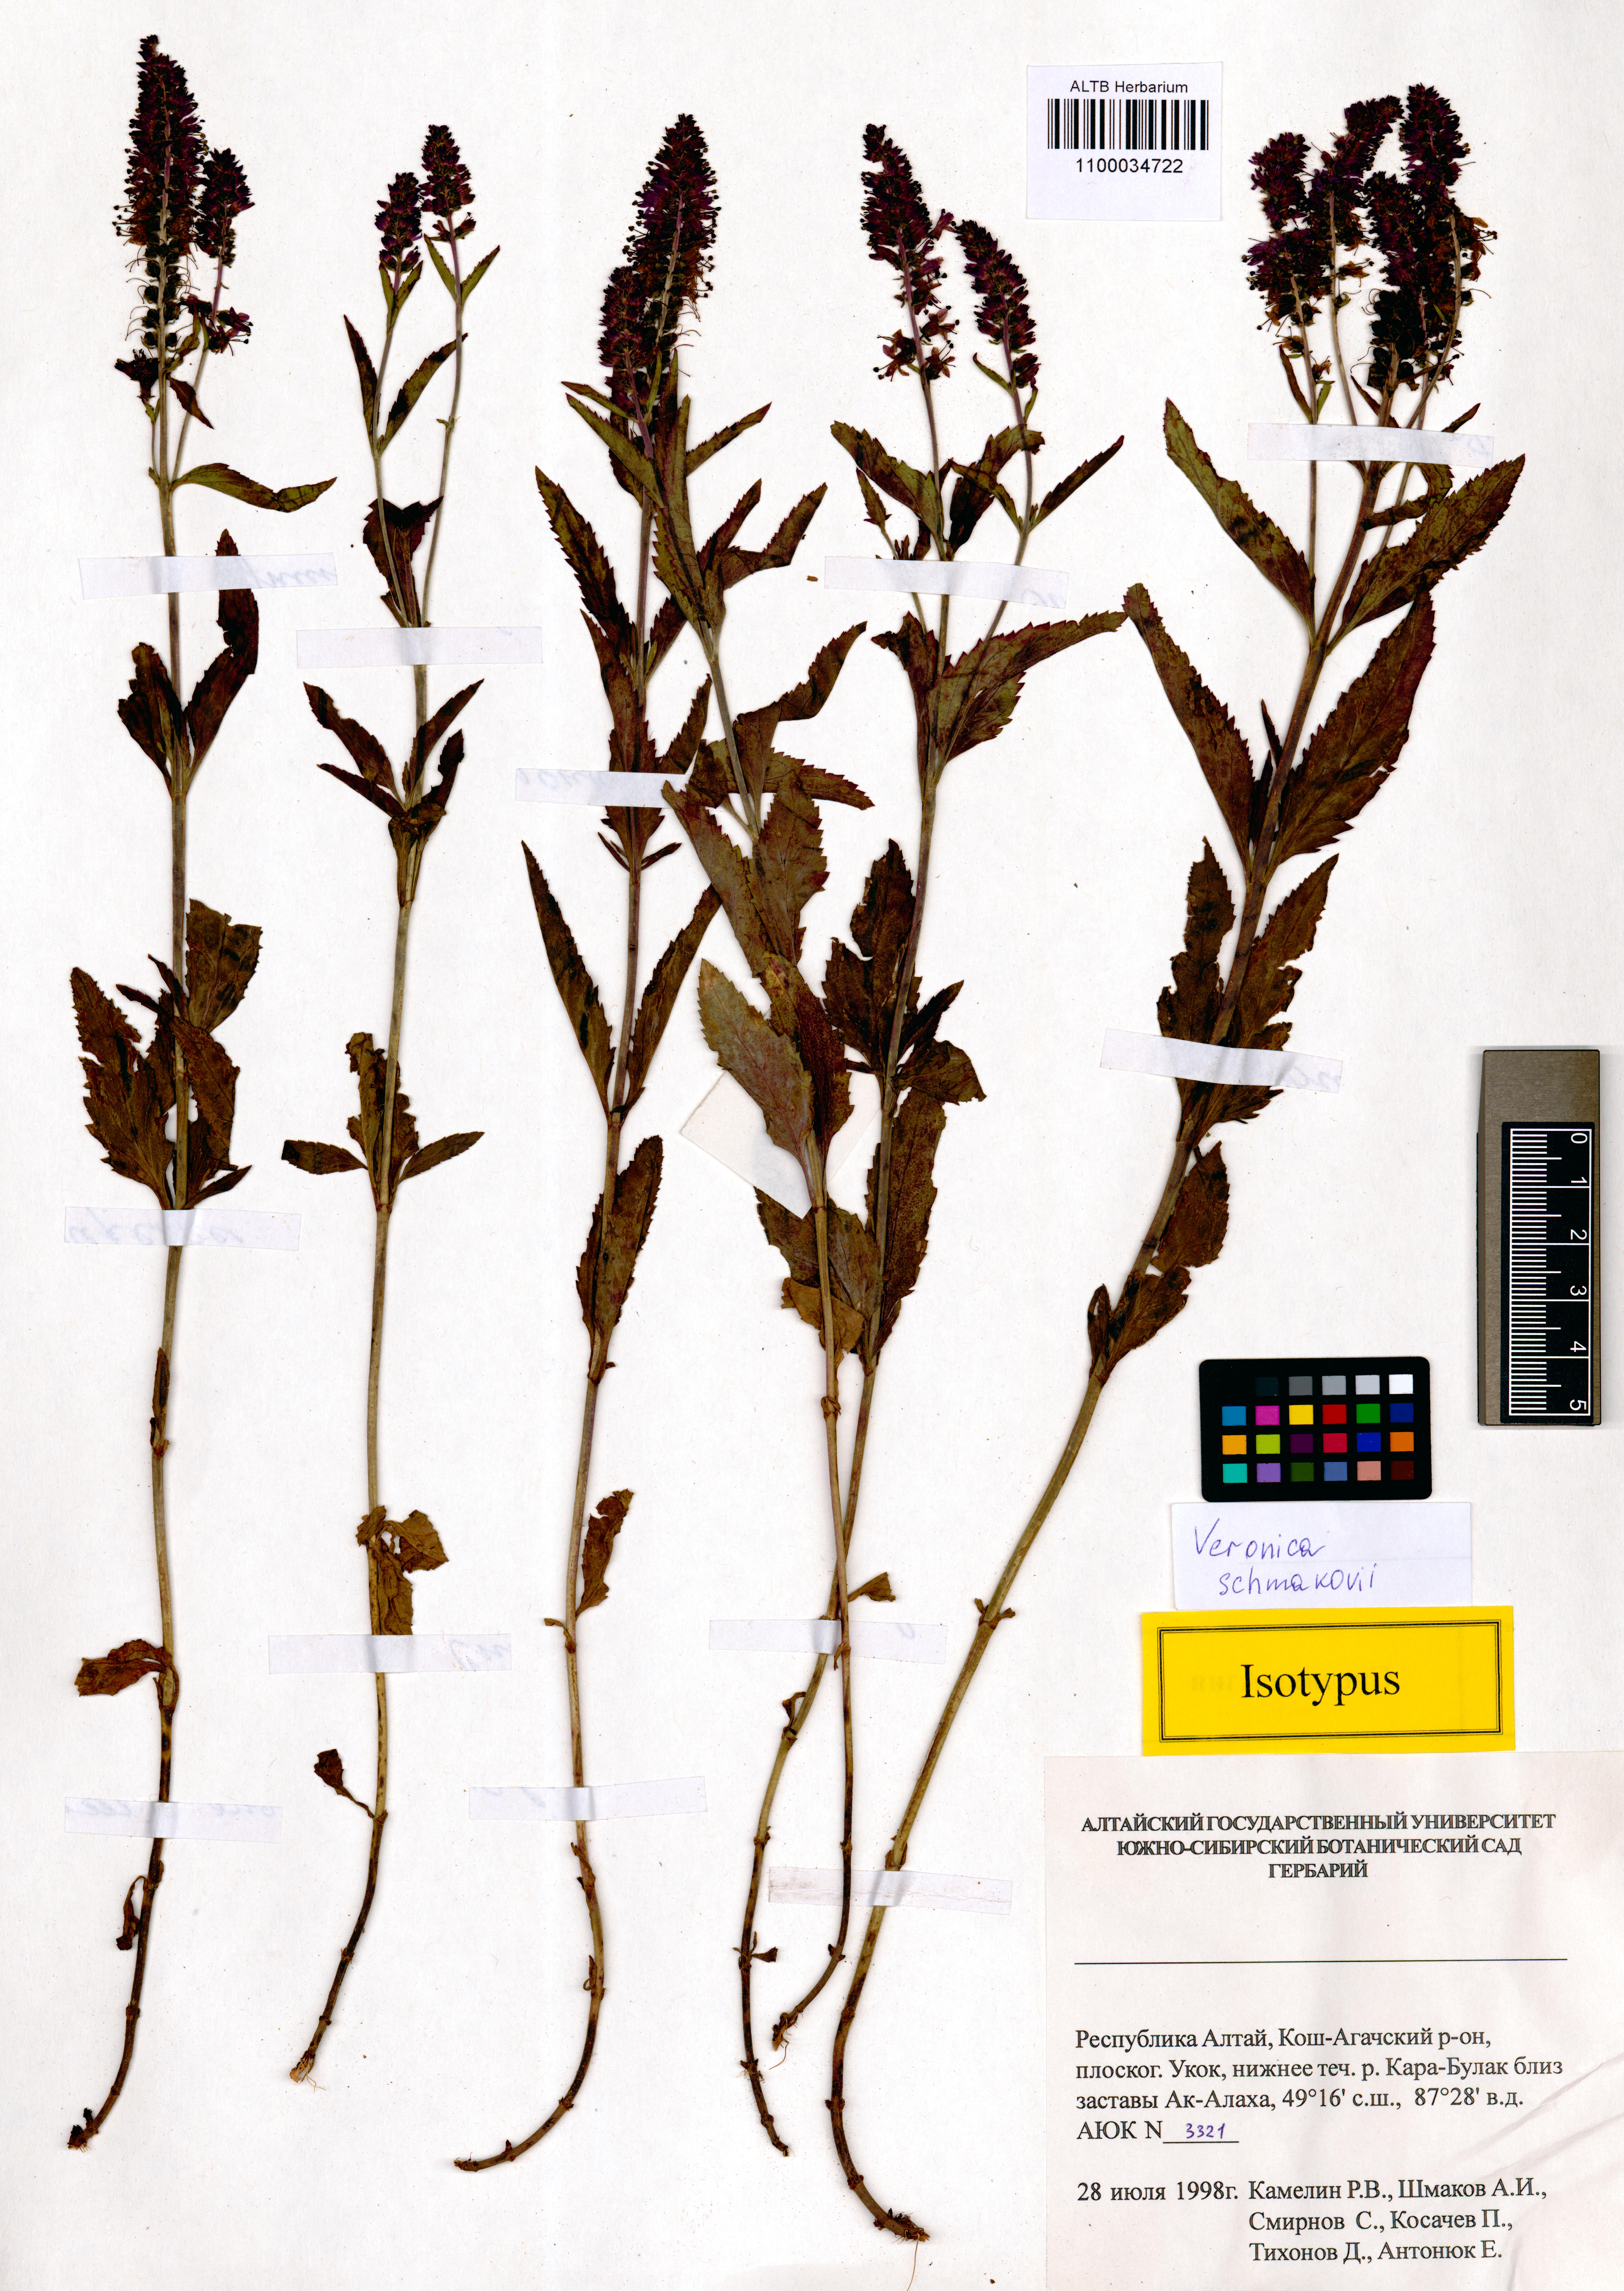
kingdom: Plantae
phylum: Tracheophyta
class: Magnoliopsida
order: Lamiales
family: Plantaginaceae
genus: Veronica
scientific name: Veronica schmakovii
